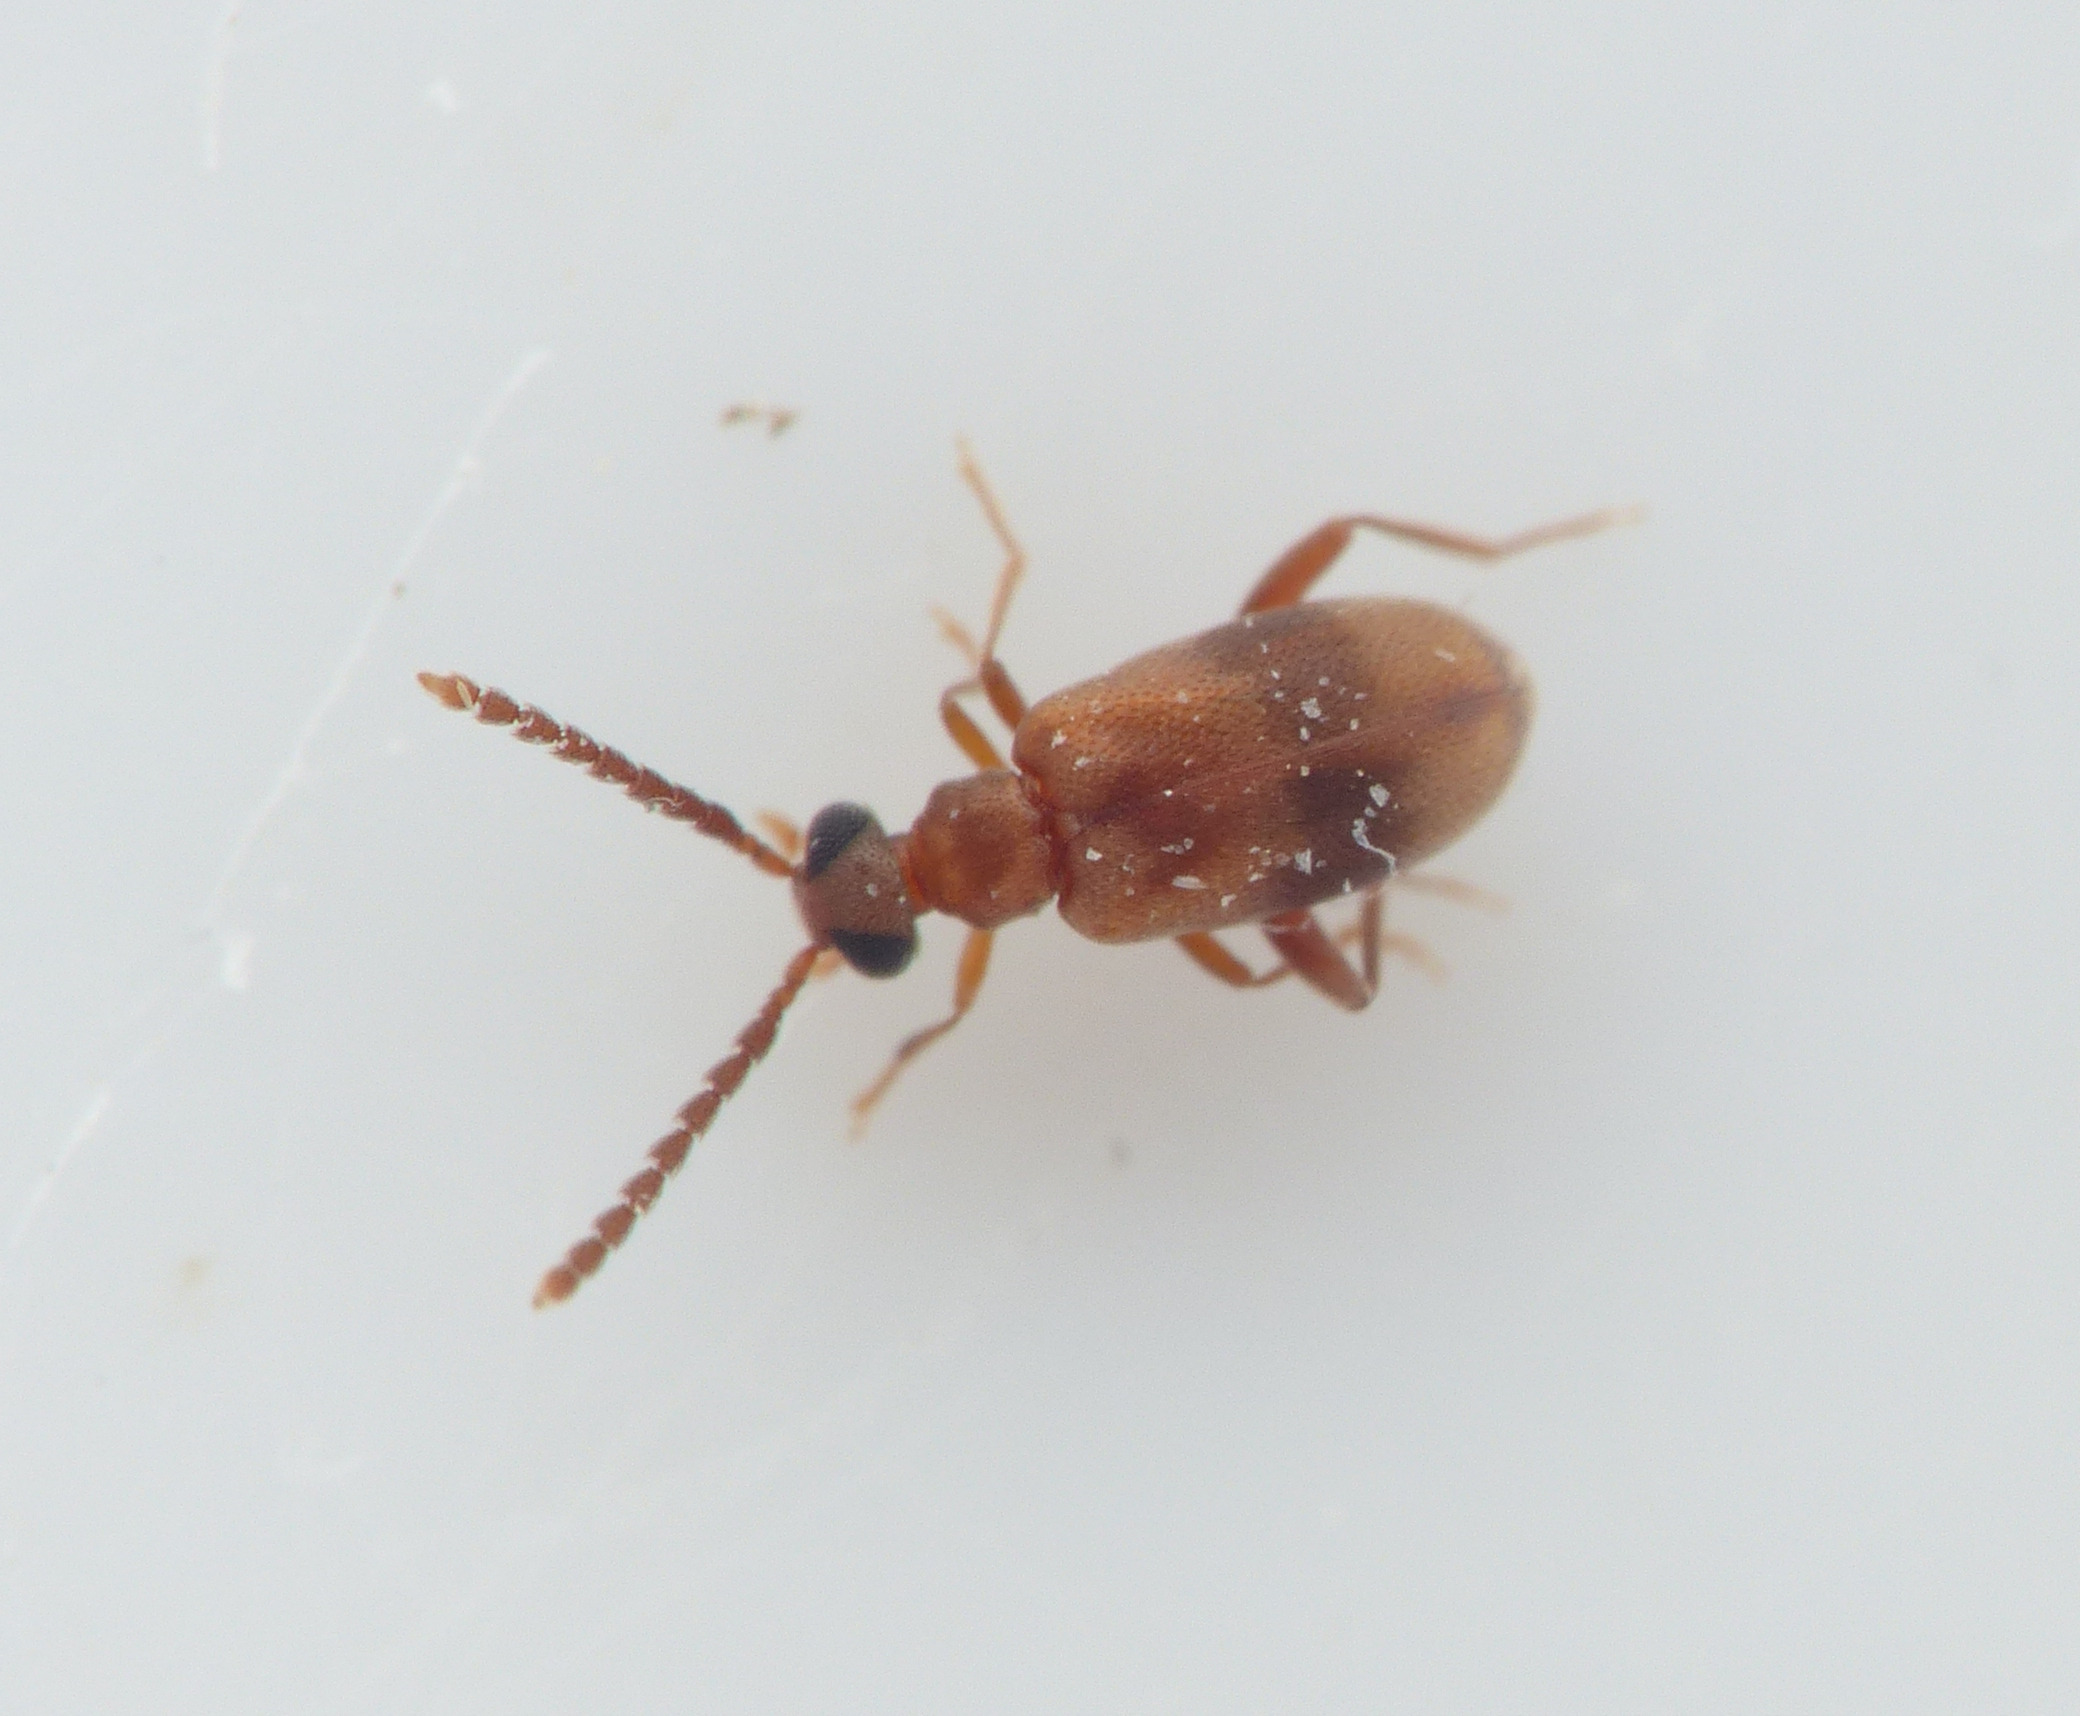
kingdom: Animalia
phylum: Arthropoda
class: Insecta
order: Coleoptera
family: Aderidae
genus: Aderus
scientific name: Aderus populneus
